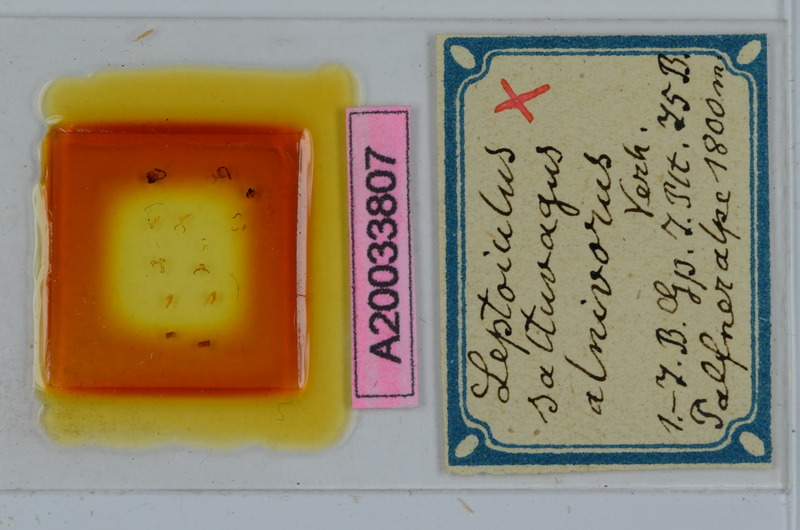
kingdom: Animalia
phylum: Arthropoda
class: Diplopoda
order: Julida
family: Julidae
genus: Leptoiulus
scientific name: Leptoiulus saltuvagus
